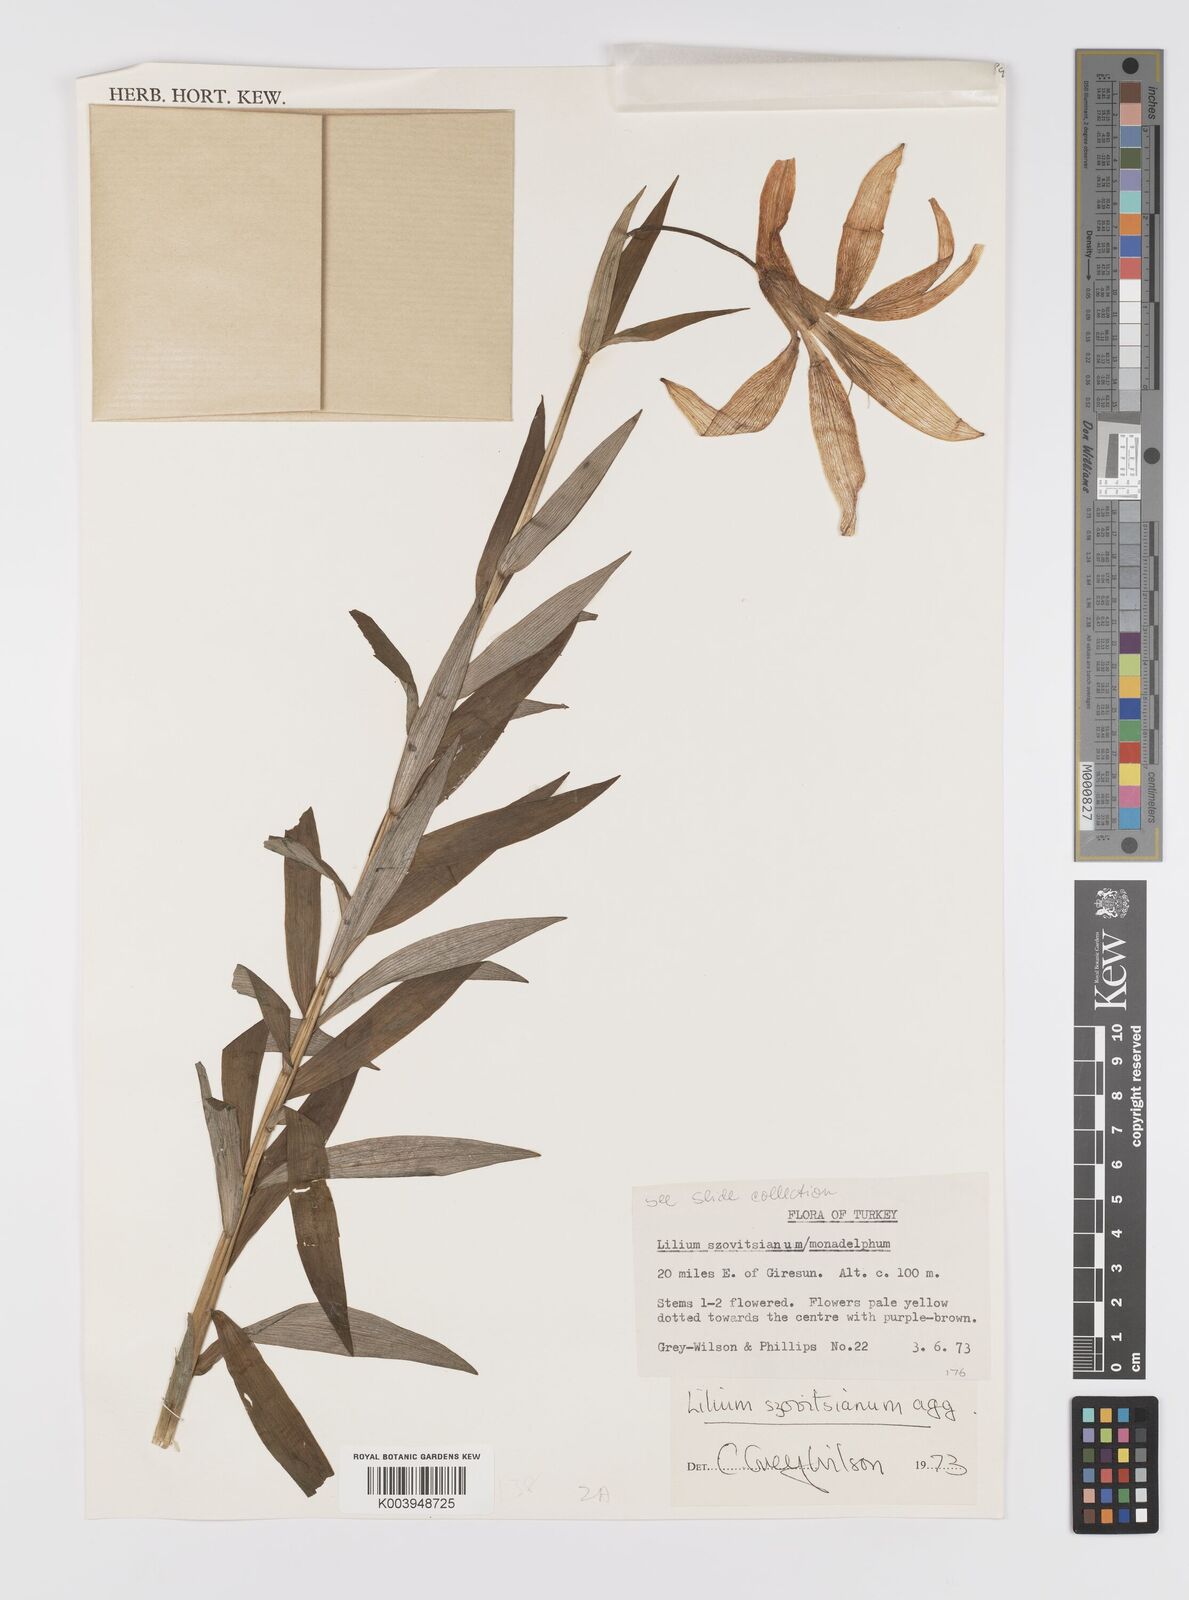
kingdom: Plantae
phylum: Tracheophyta
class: Liliopsida
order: Liliales
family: Liliaceae
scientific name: Liliaceae
